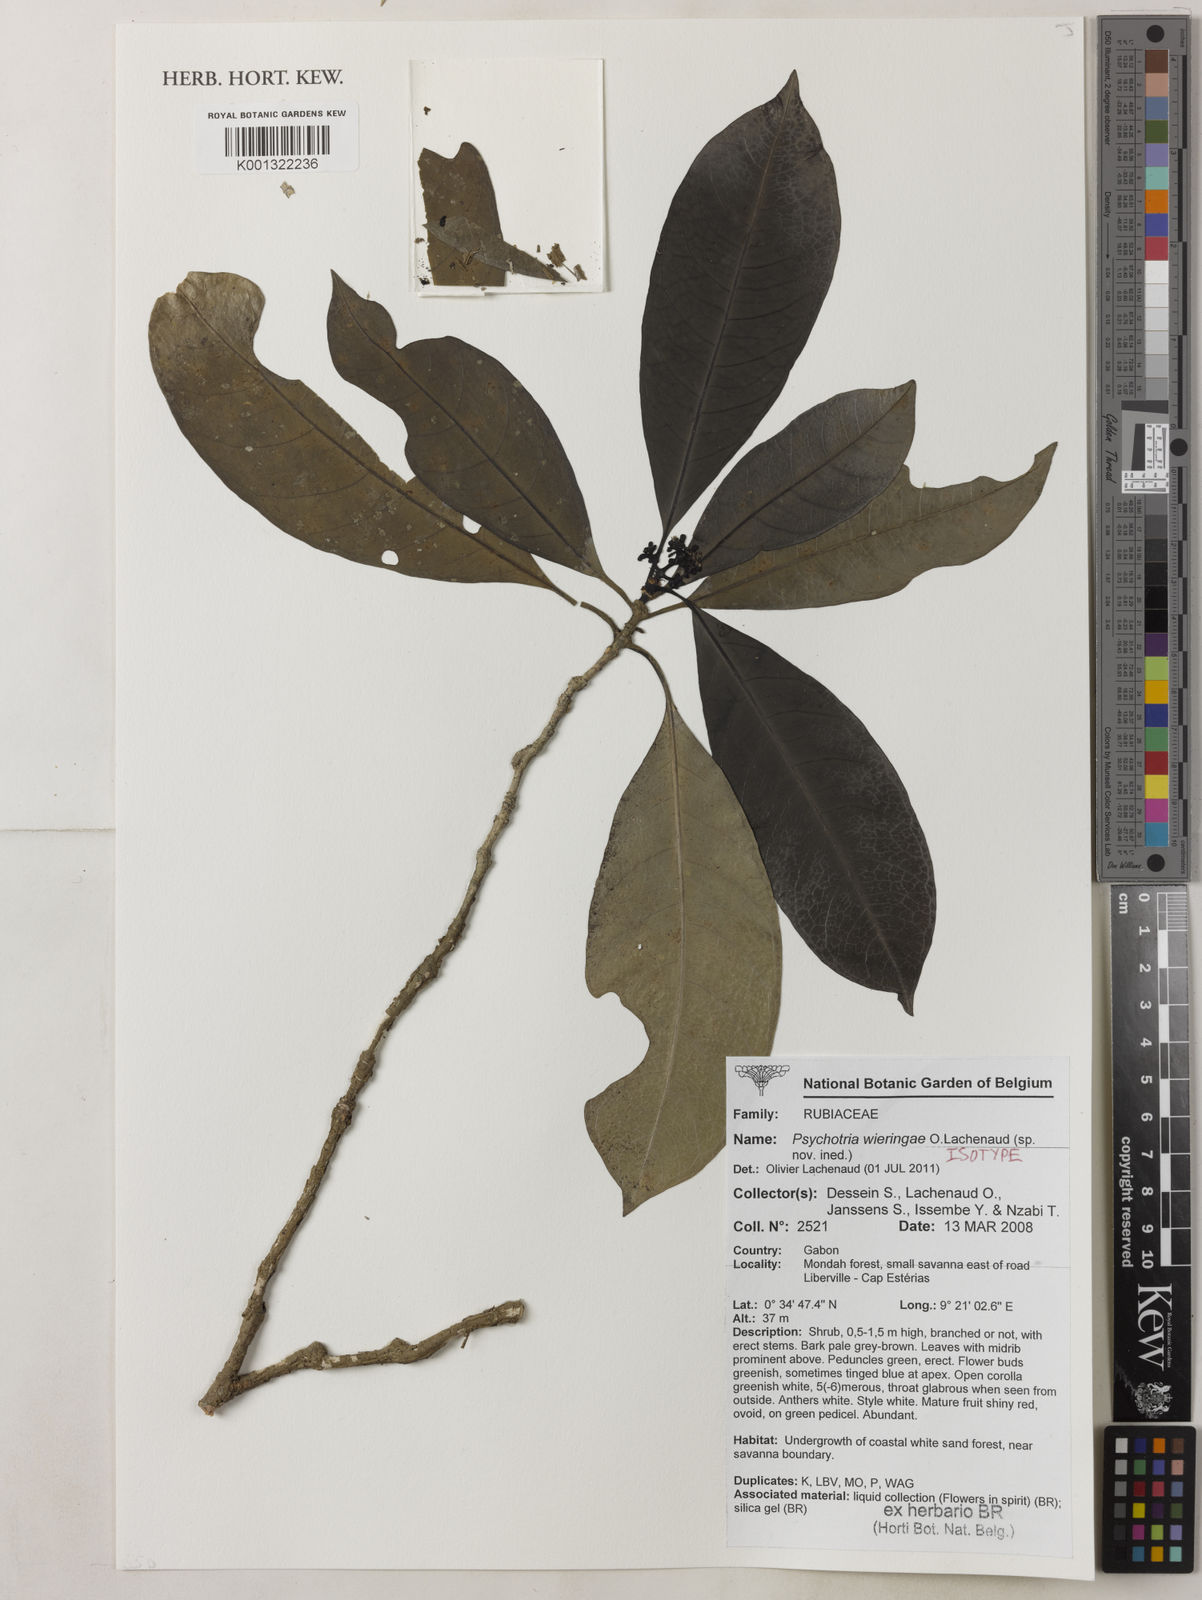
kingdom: Plantae
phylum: Tracheophyta
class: Magnoliopsida
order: Gentianales
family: Rubiaceae
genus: Psychotria
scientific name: Psychotria wieringae
